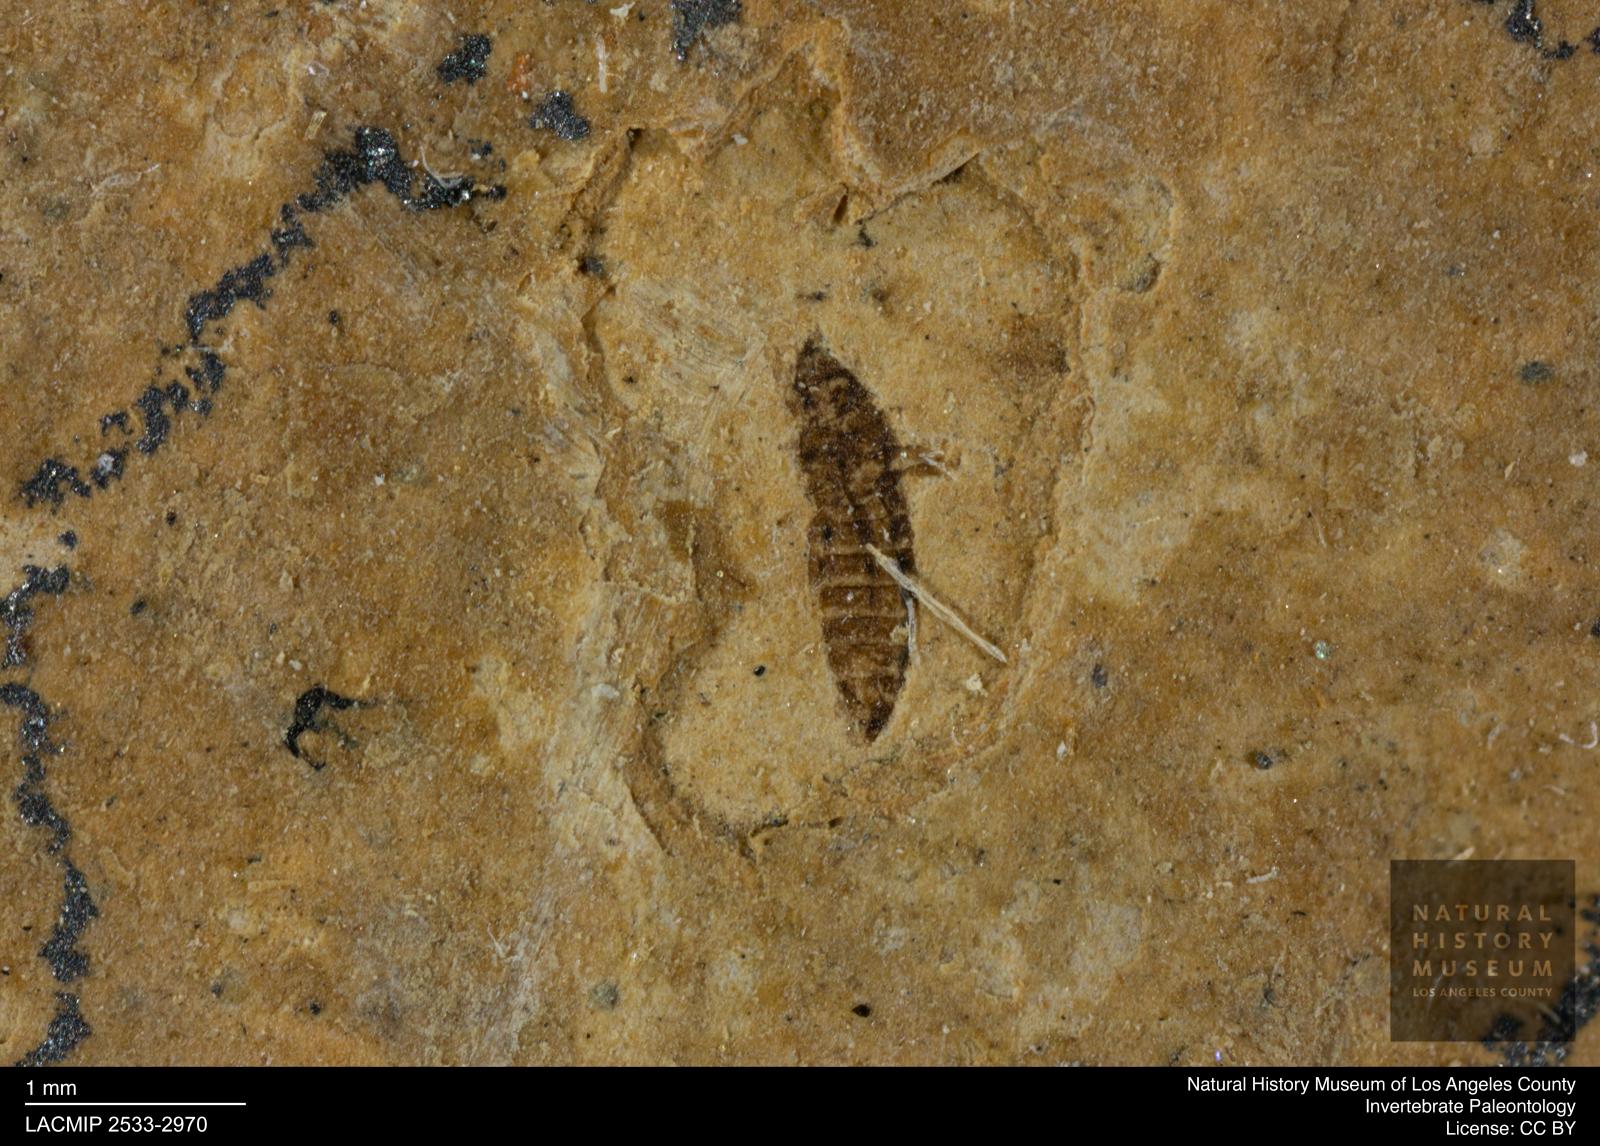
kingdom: Animalia
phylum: Arthropoda
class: Insecta
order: Thysanoptera
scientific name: Thysanoptera
